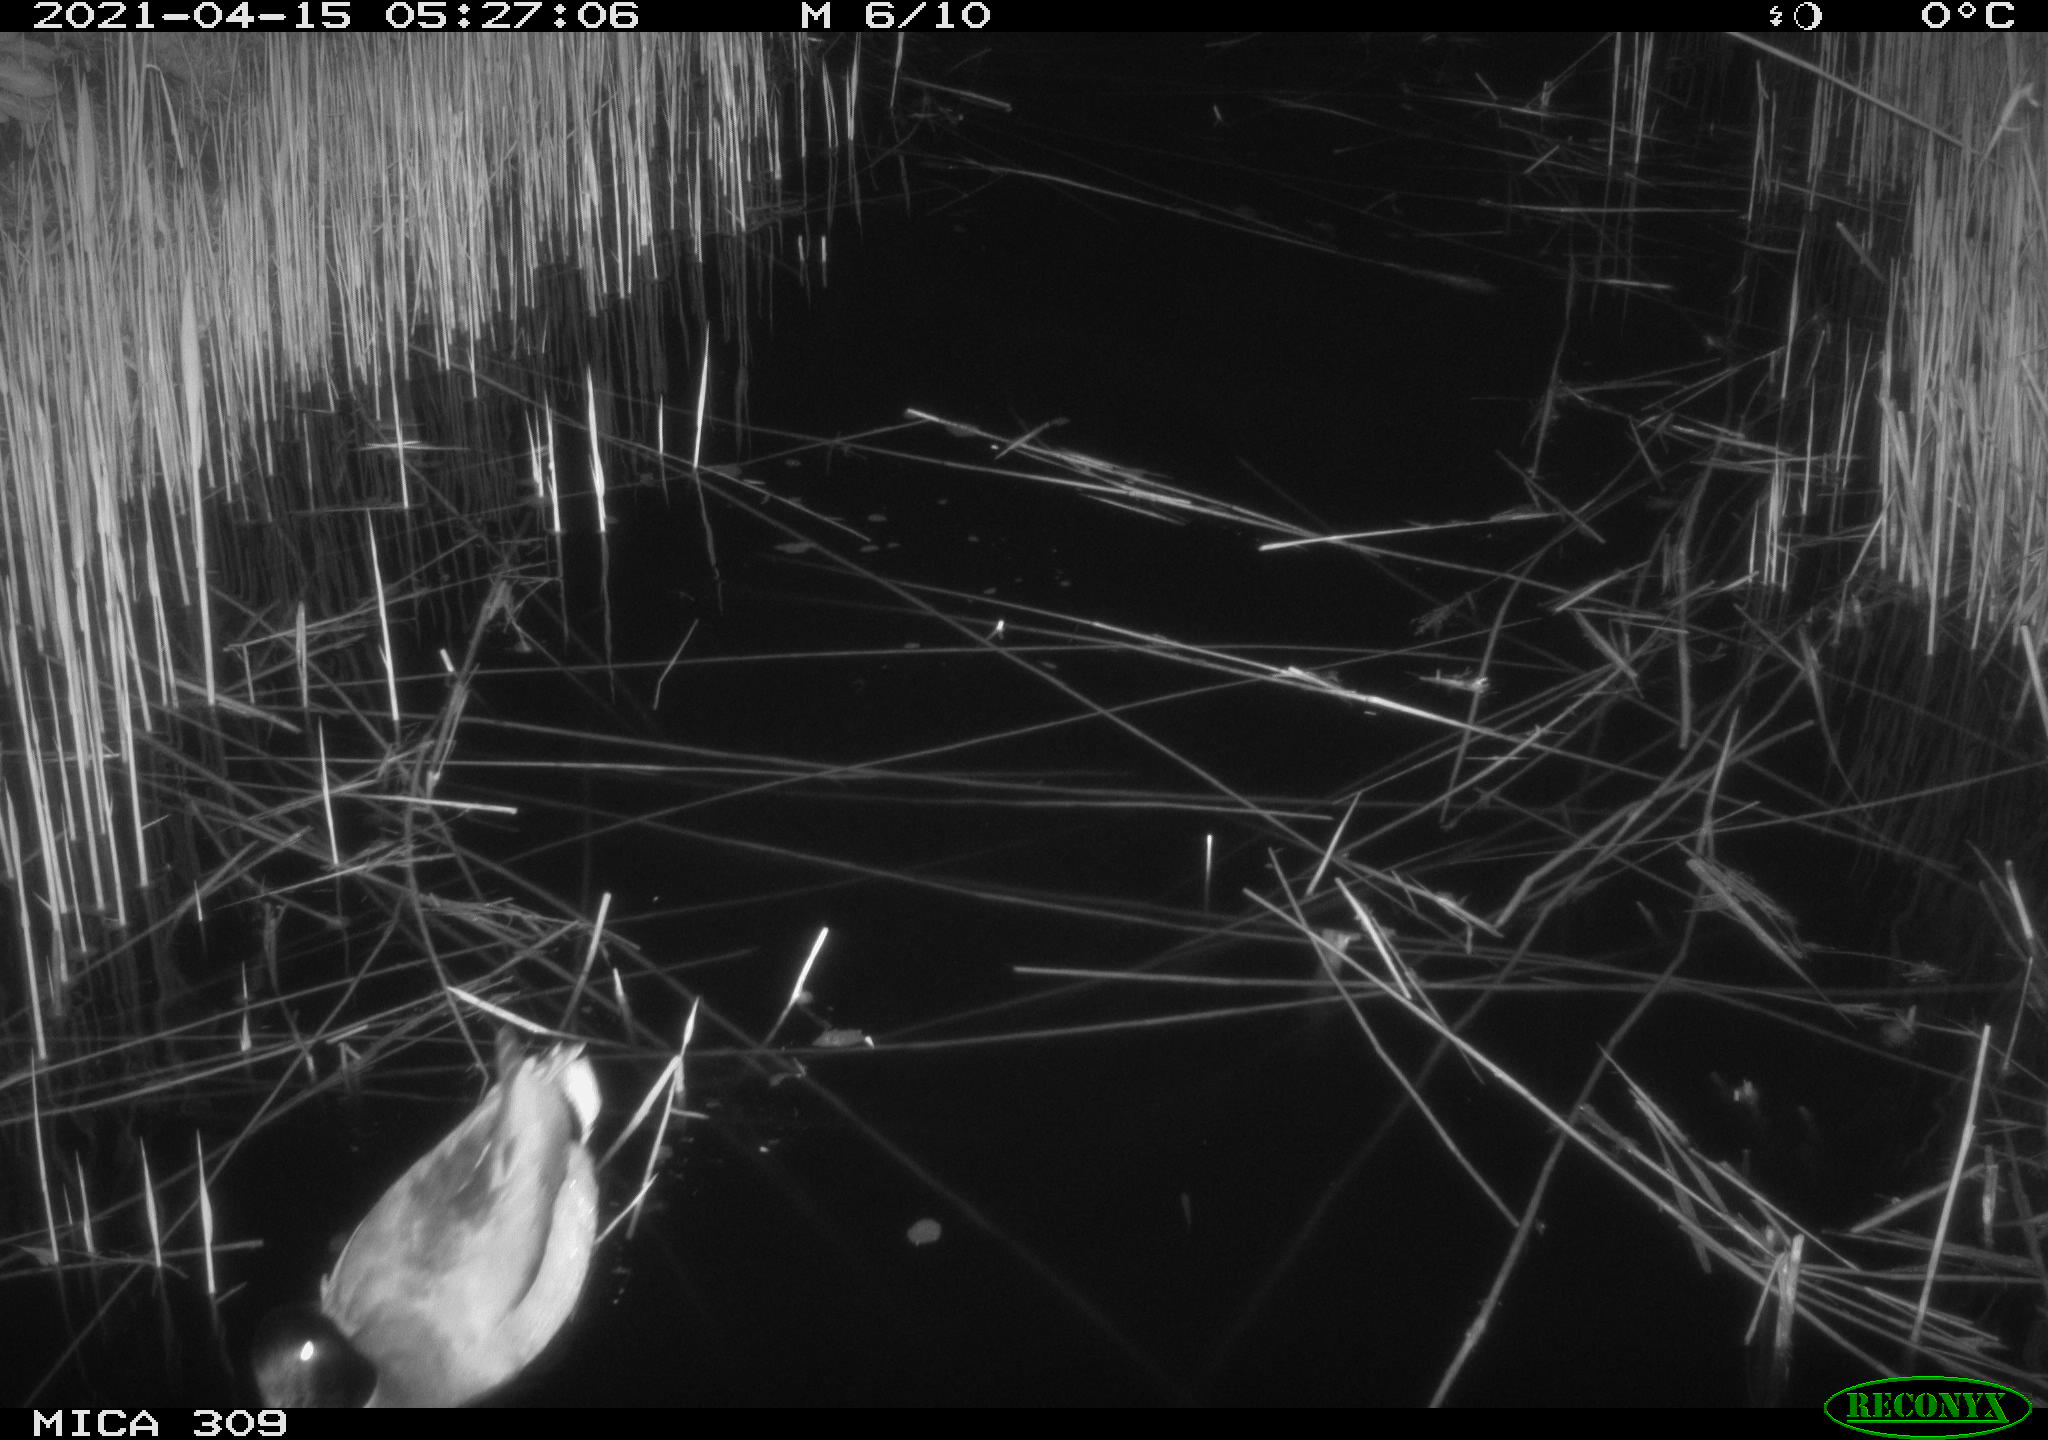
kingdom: Animalia
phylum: Chordata
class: Aves
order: Gruiformes
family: Rallidae
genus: Gallinula
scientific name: Gallinula chloropus
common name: Common moorhen
